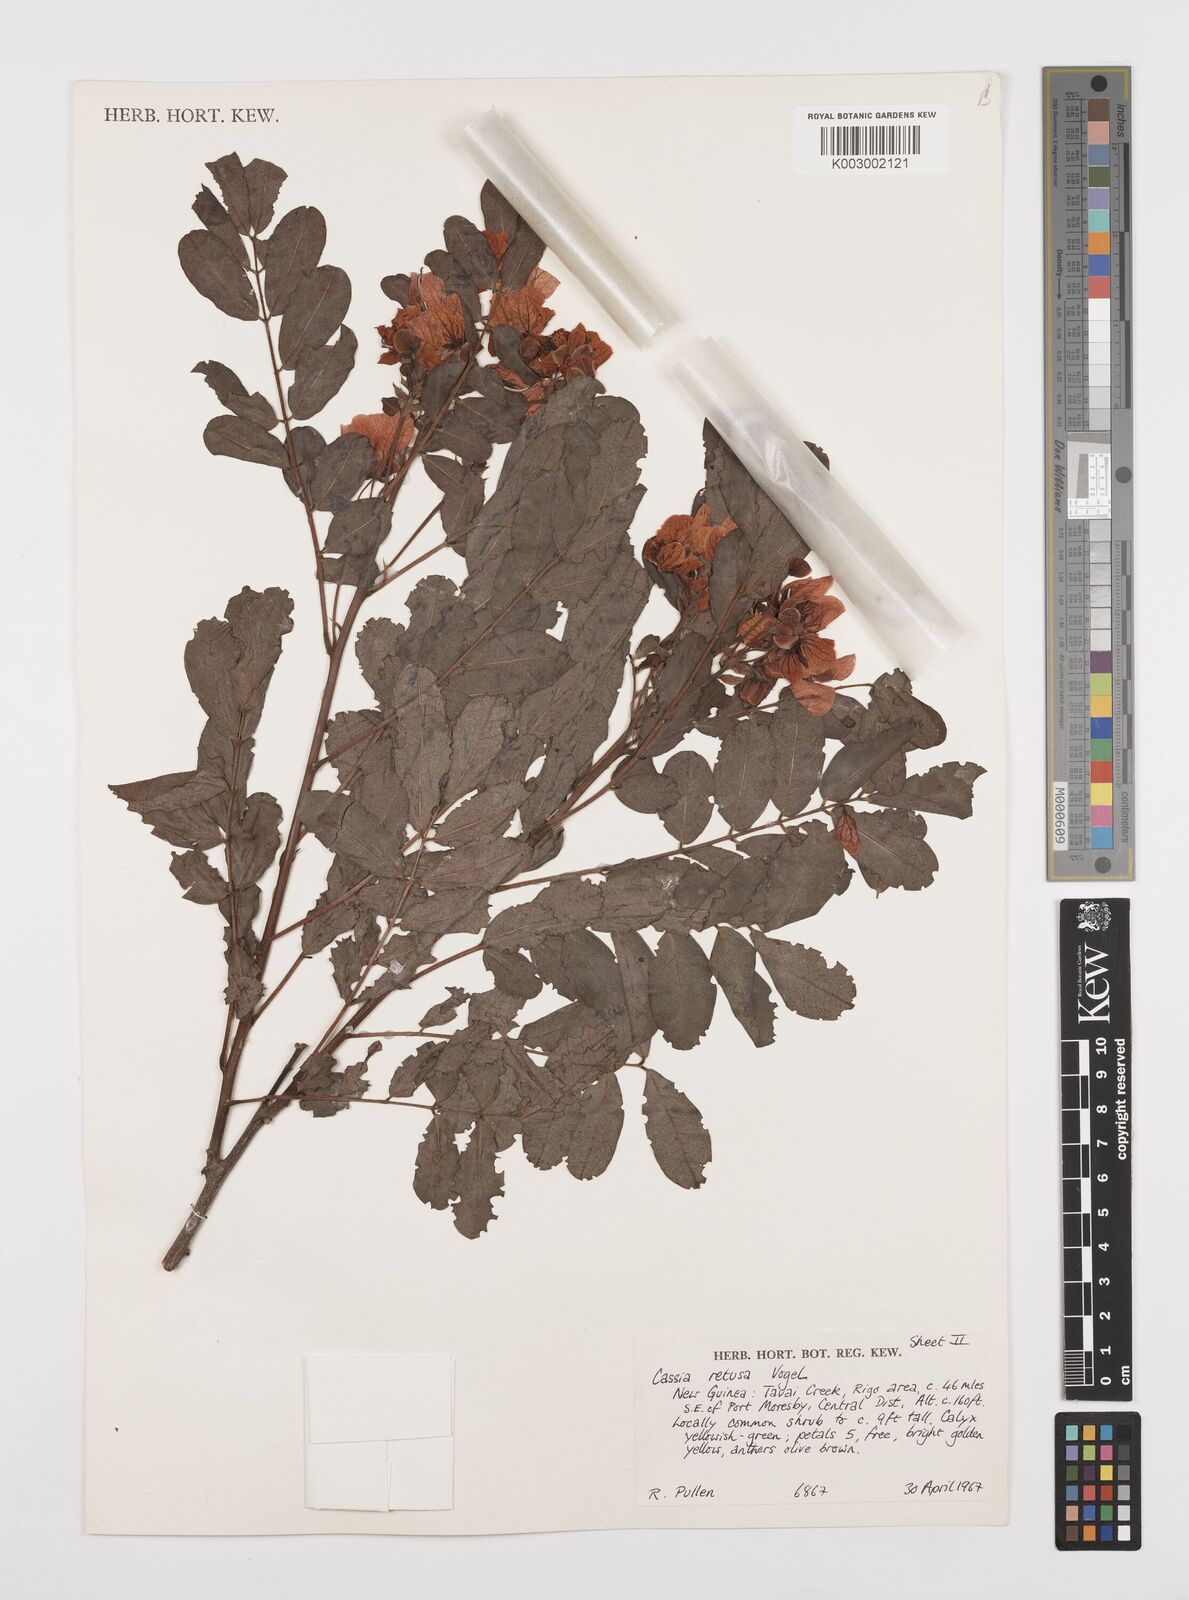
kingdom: Plantae
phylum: Tracheophyta
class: Magnoliopsida
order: Fabales
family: Fabaceae
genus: Senna
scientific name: Senna gaudichaudii
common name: Climbing cassia
